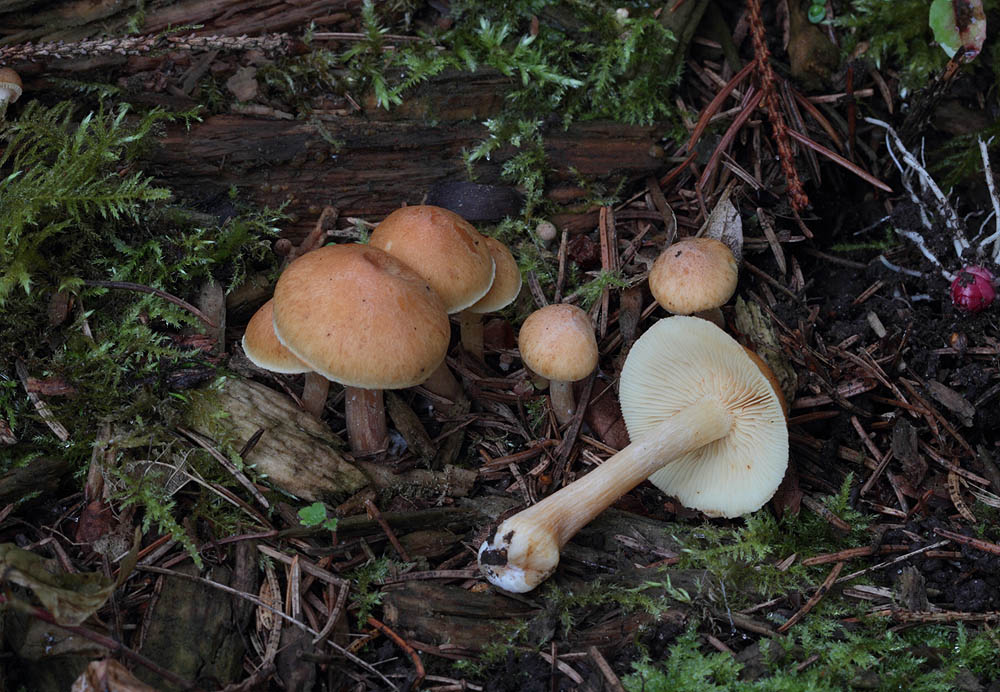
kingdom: Fungi
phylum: Basidiomycota
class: Agaricomycetes
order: Agaricales
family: Hymenogastraceae
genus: Gymnopilus
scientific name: Gymnopilus penetrans
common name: plettet flammehat
